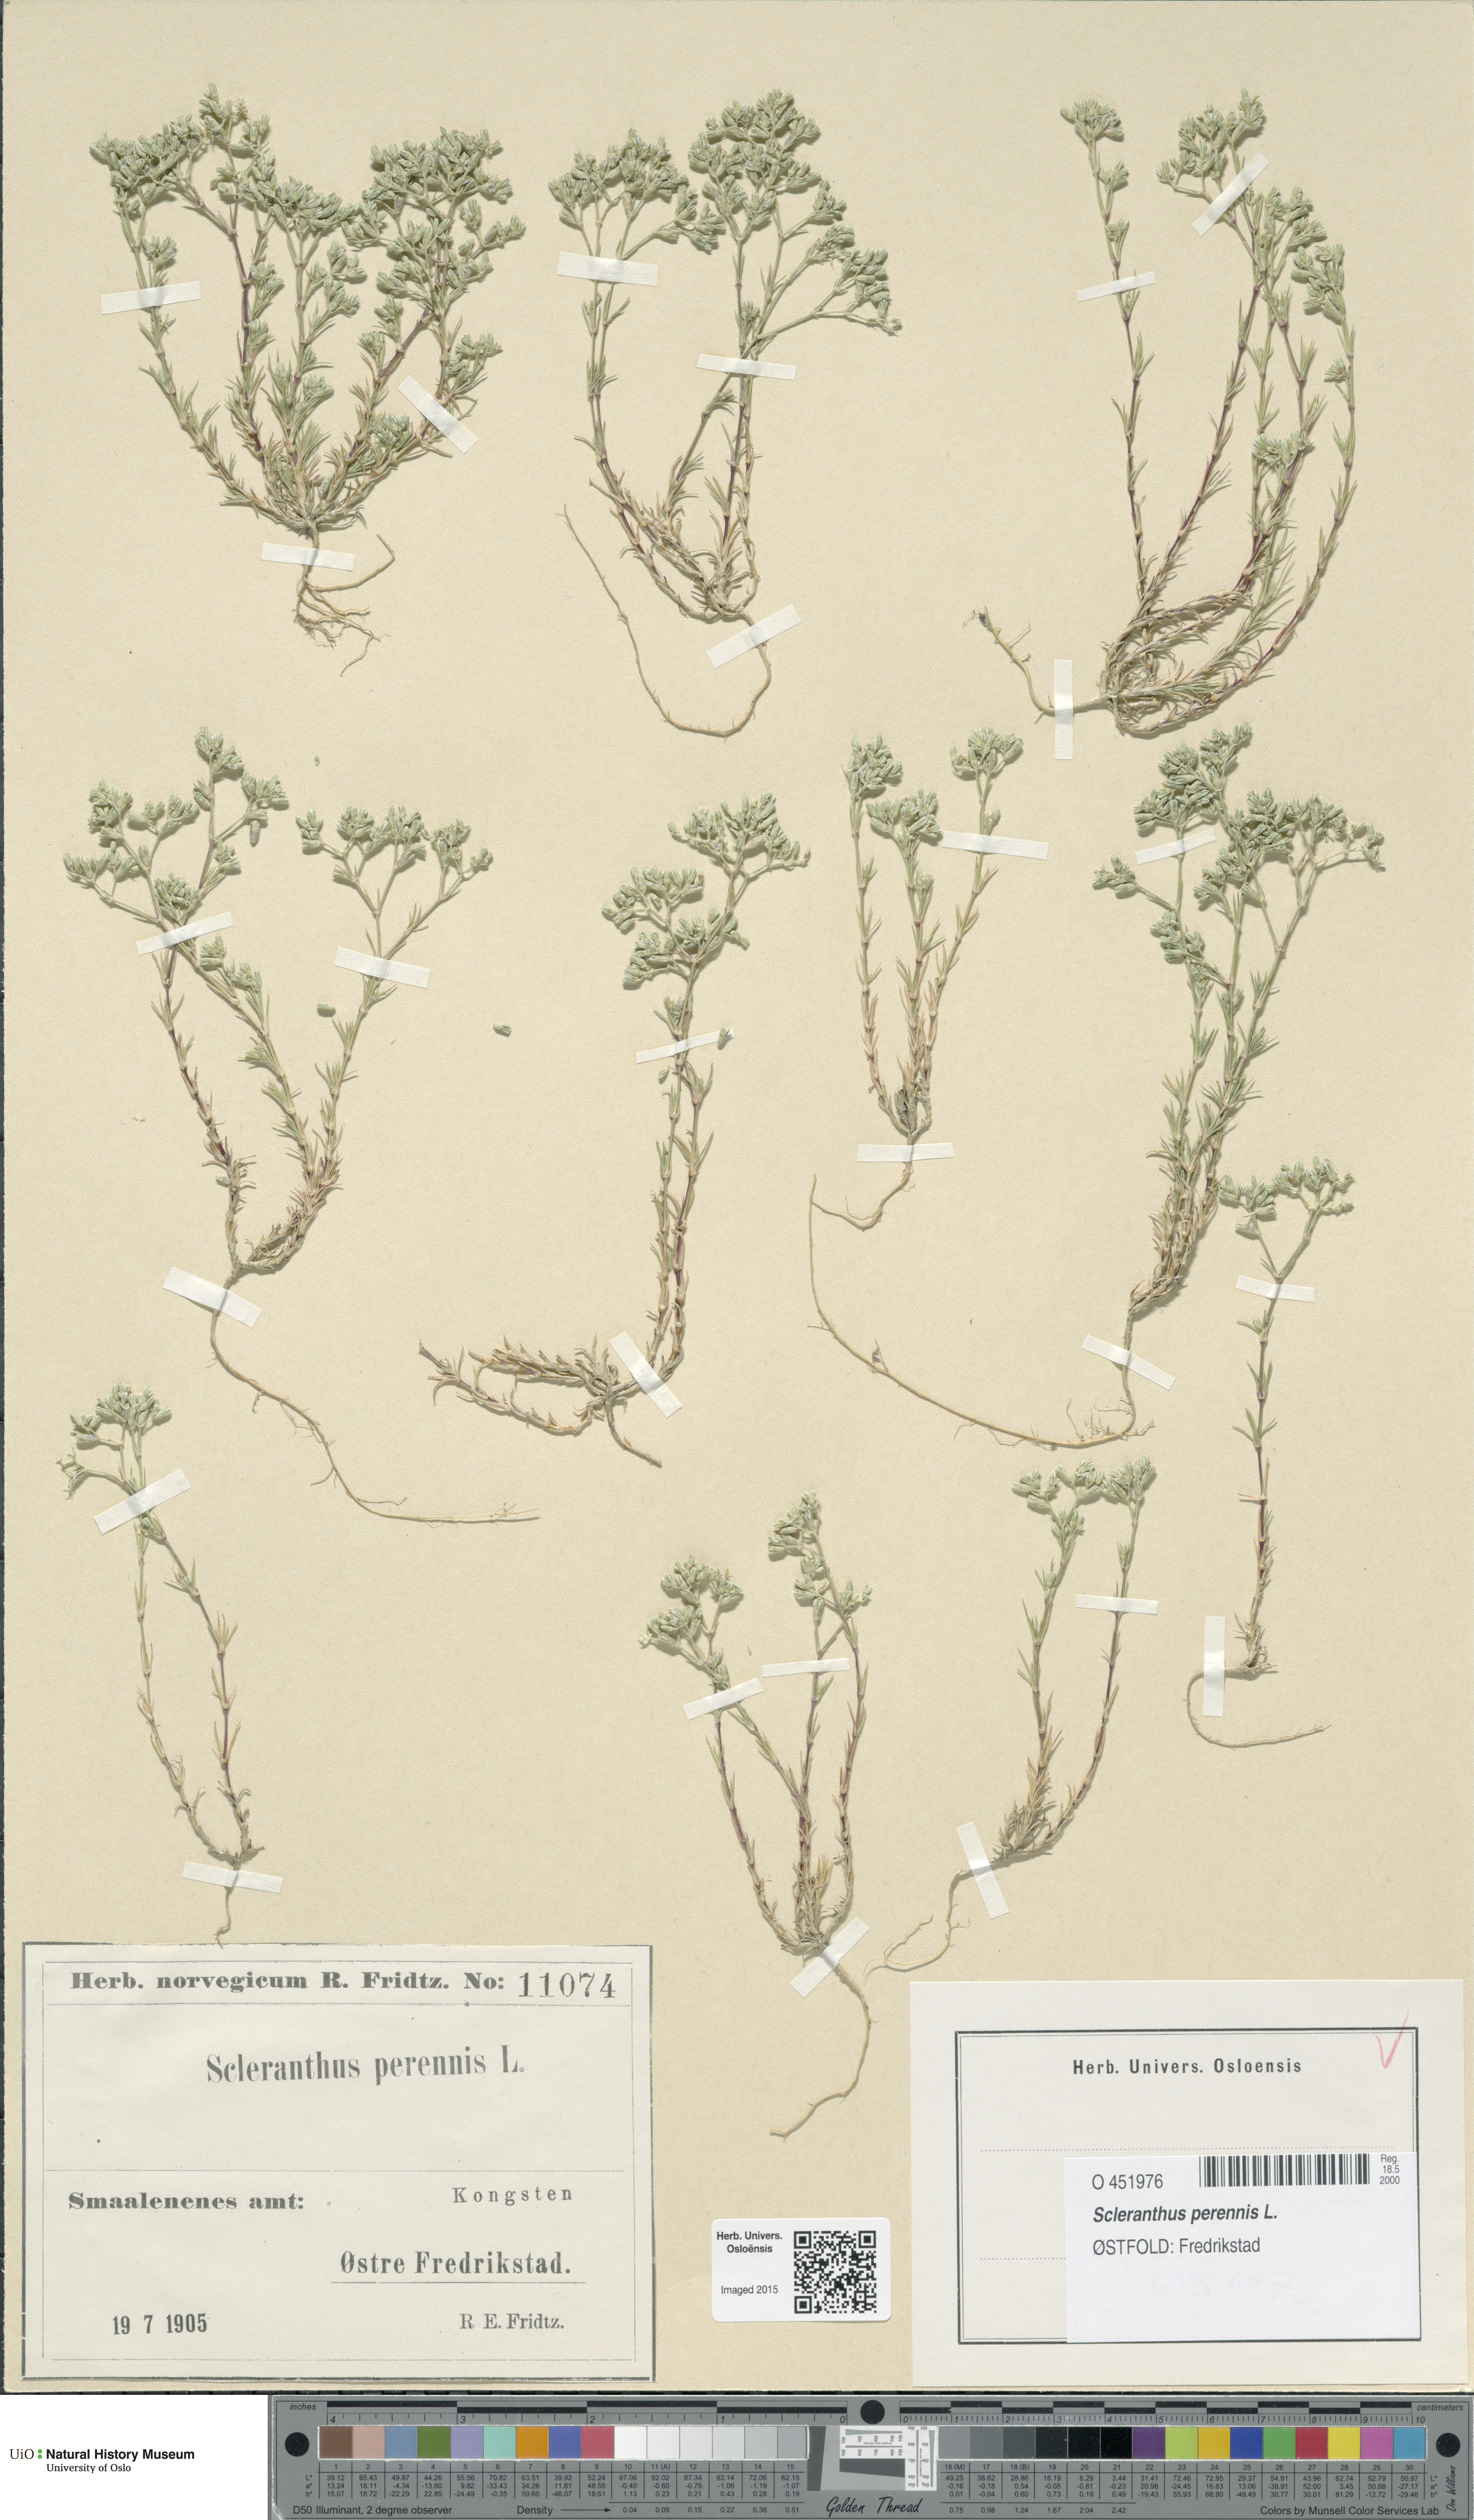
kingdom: Plantae
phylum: Tracheophyta
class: Magnoliopsida
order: Caryophyllales
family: Caryophyllaceae
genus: Scleranthus
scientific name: Scleranthus perennis
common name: Perennial knawel
